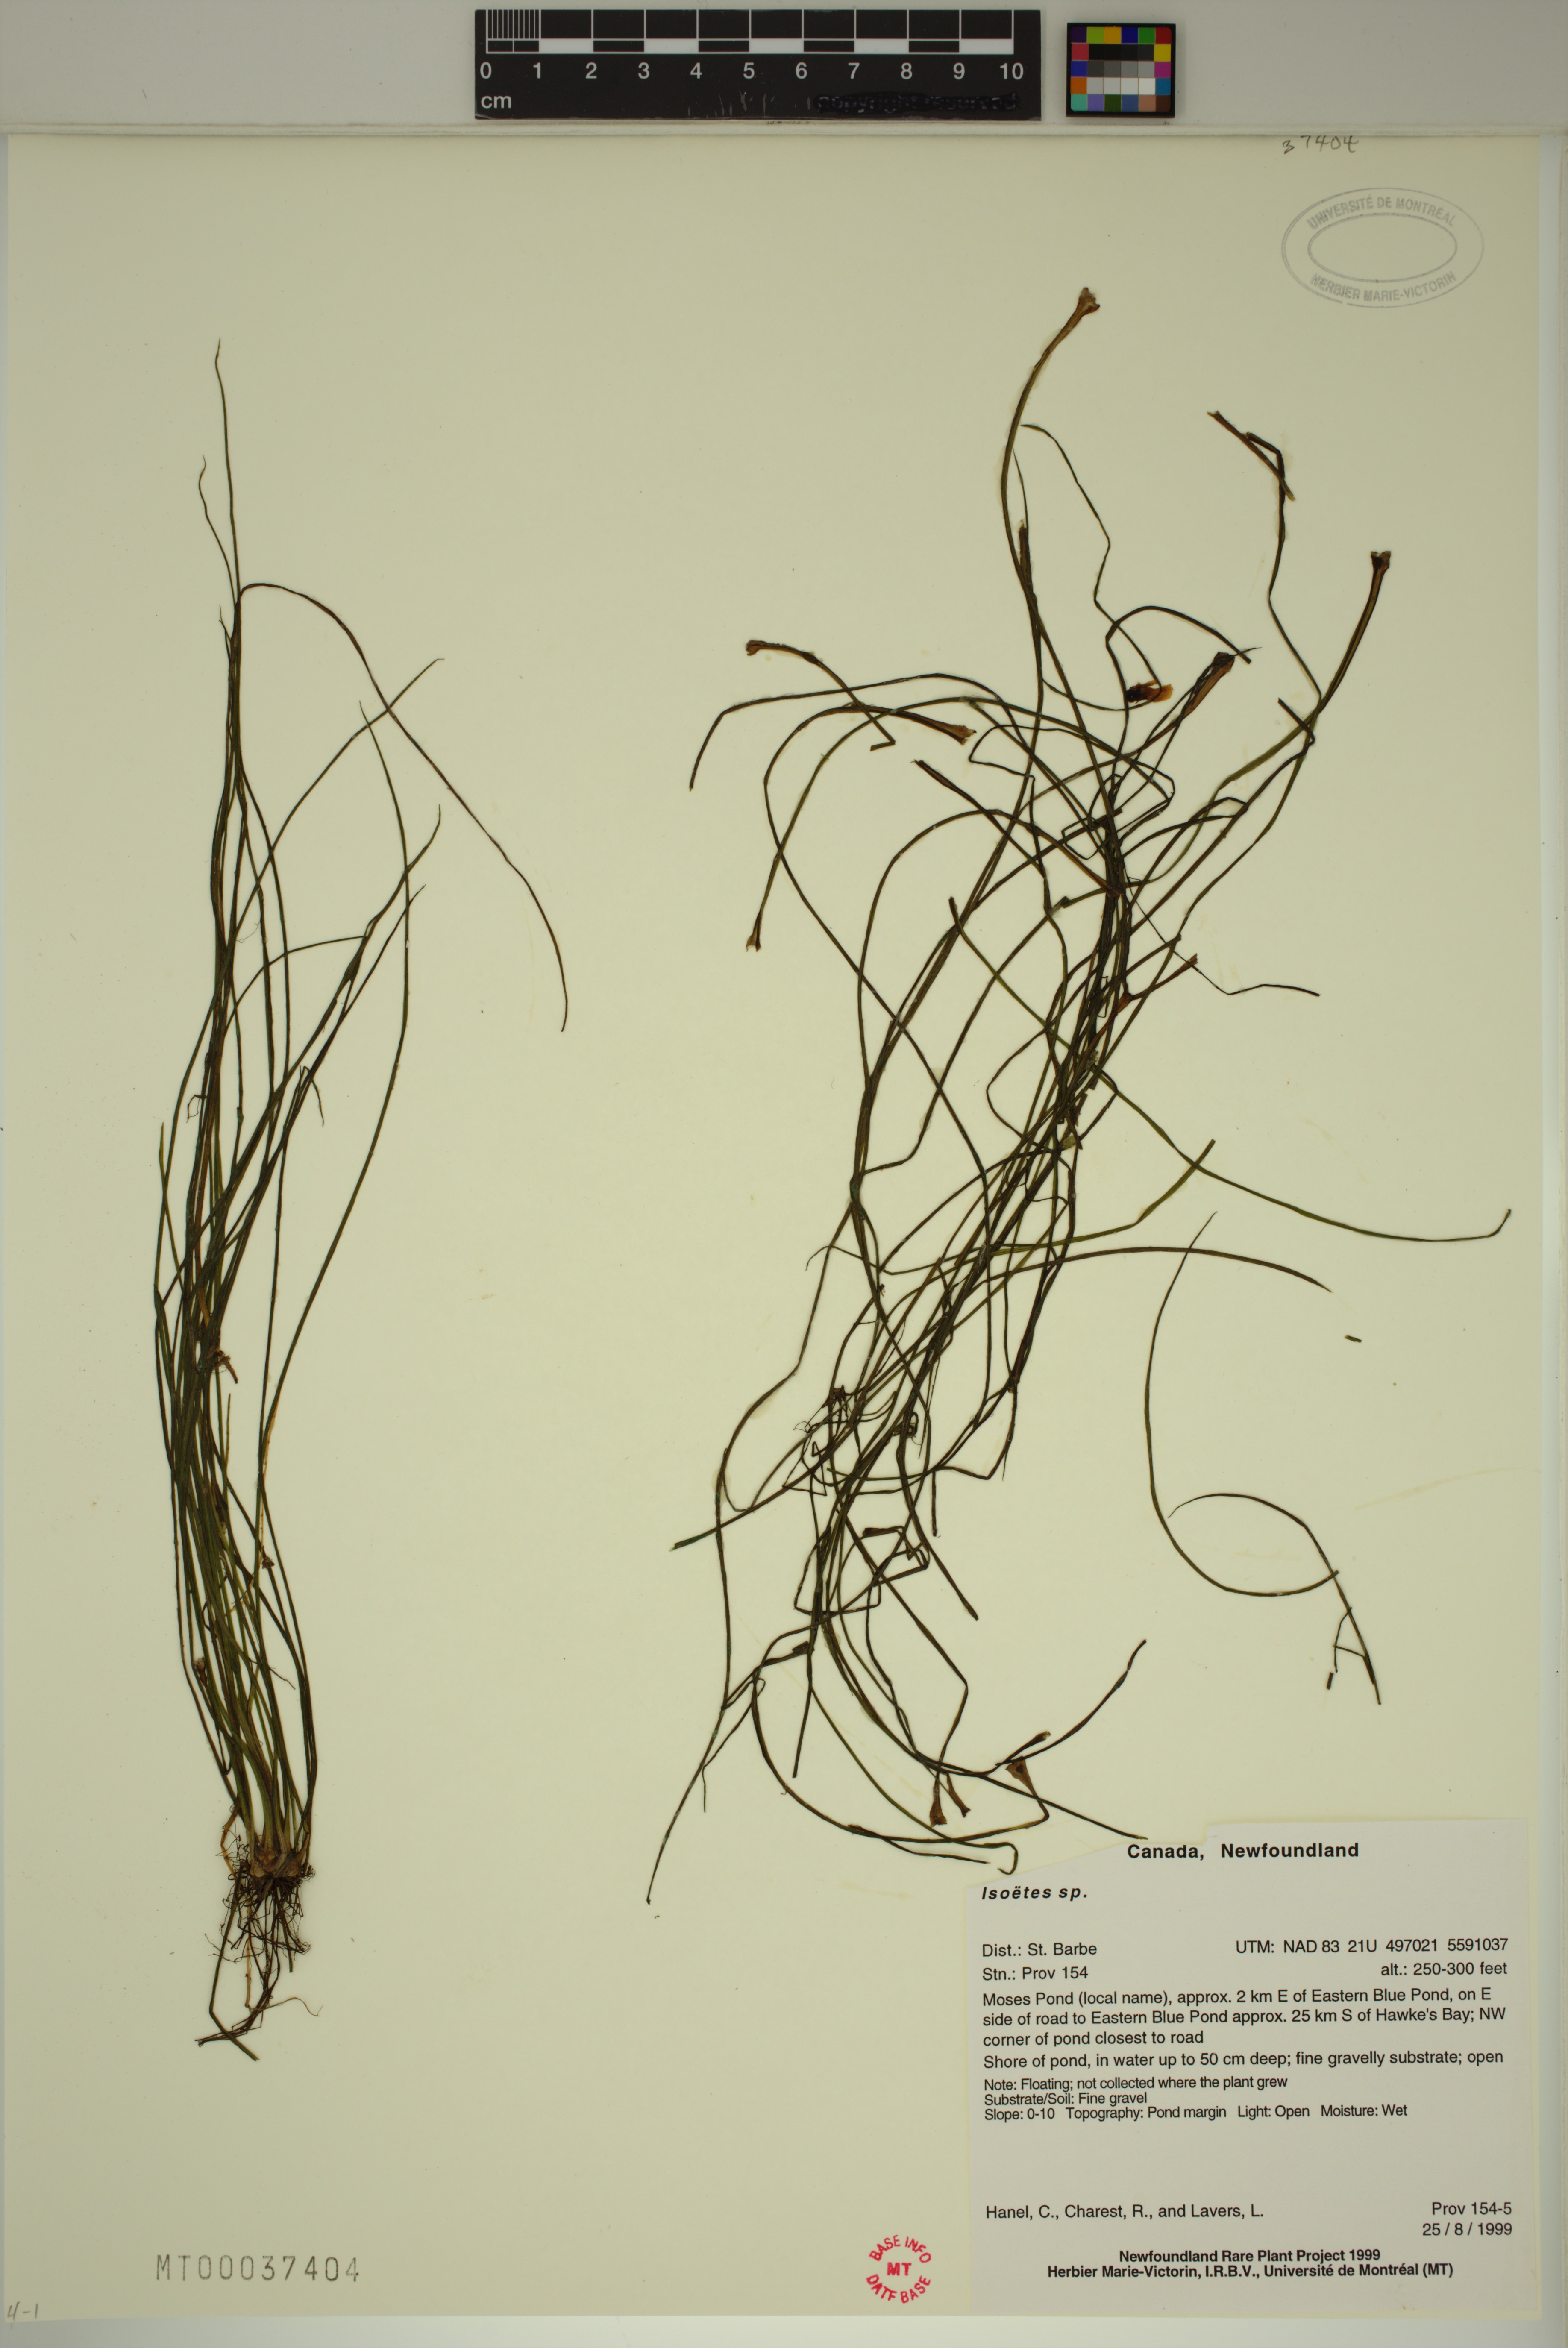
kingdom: Plantae
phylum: Tracheophyta
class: Lycopodiopsida
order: Isoetales
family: Isoetaceae
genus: Isoetes
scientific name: Isoetes tuckermanii
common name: Tuckerman's quillwort
